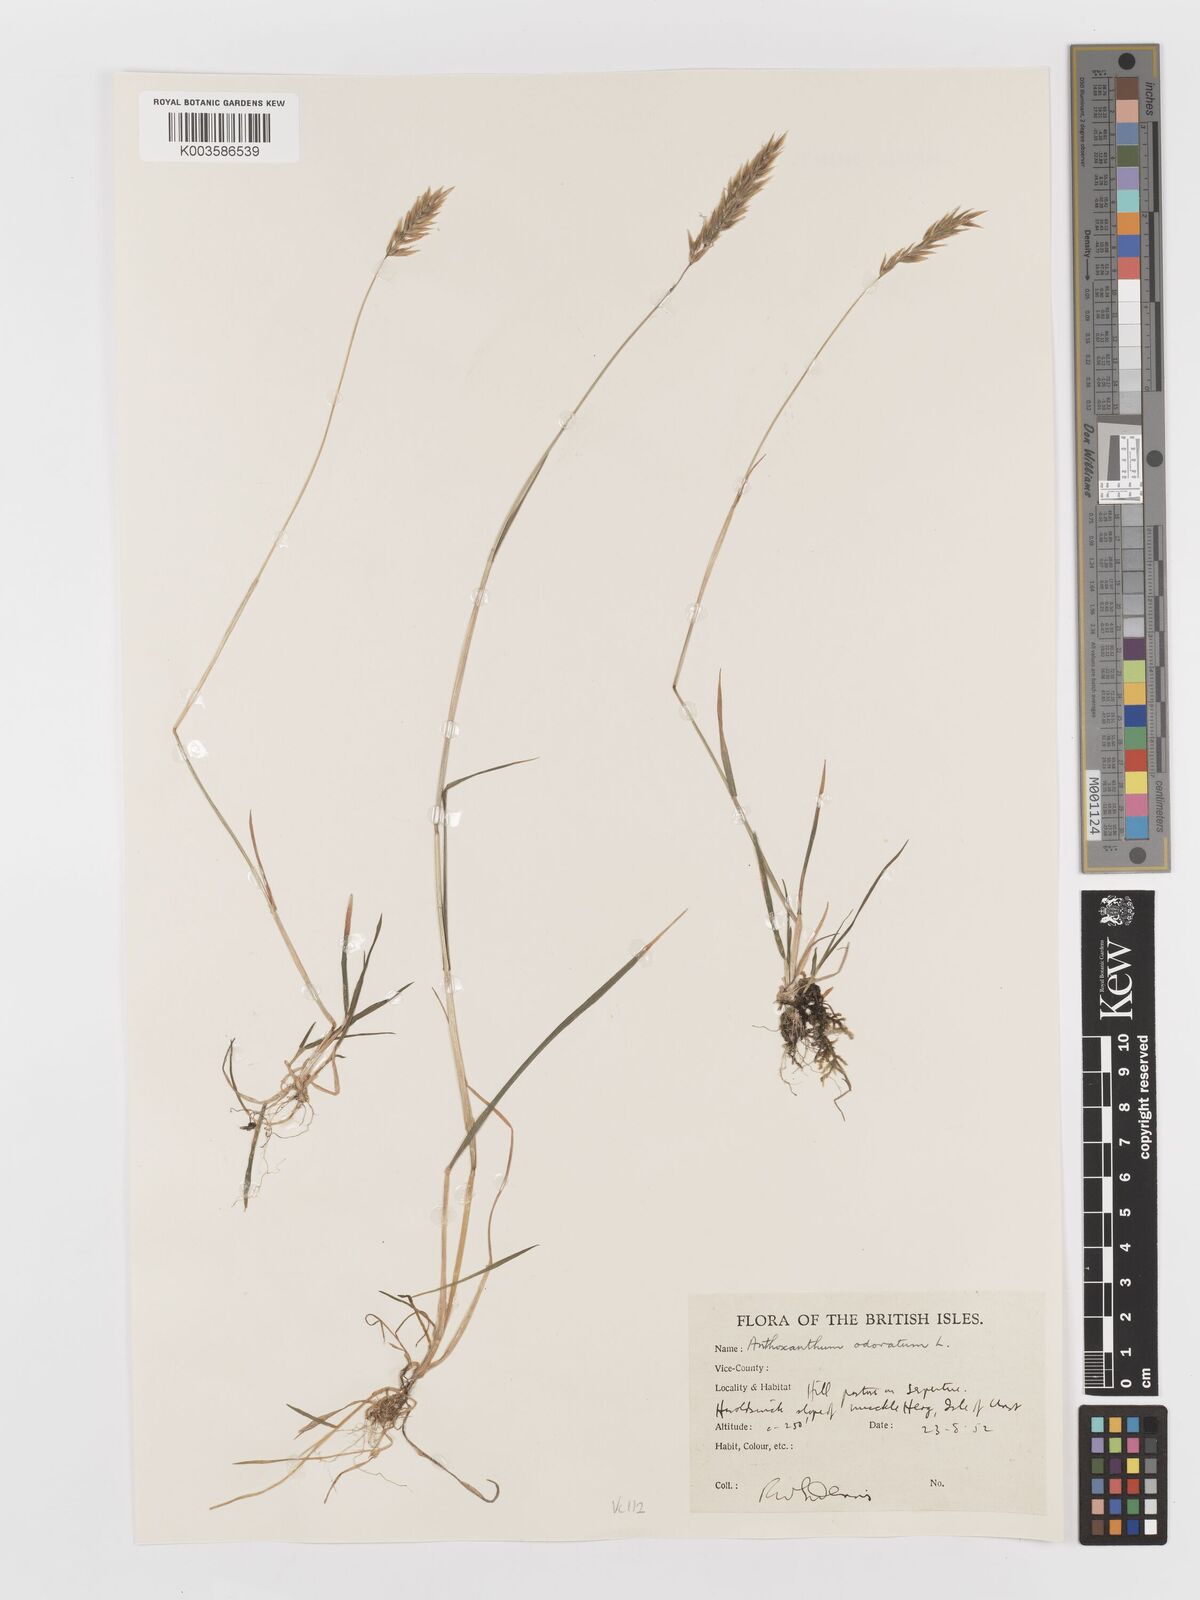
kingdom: Plantae
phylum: Tracheophyta
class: Liliopsida
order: Poales
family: Poaceae
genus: Anthoxanthum
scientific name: Anthoxanthum odoratum
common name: Sweet vernalgrass
